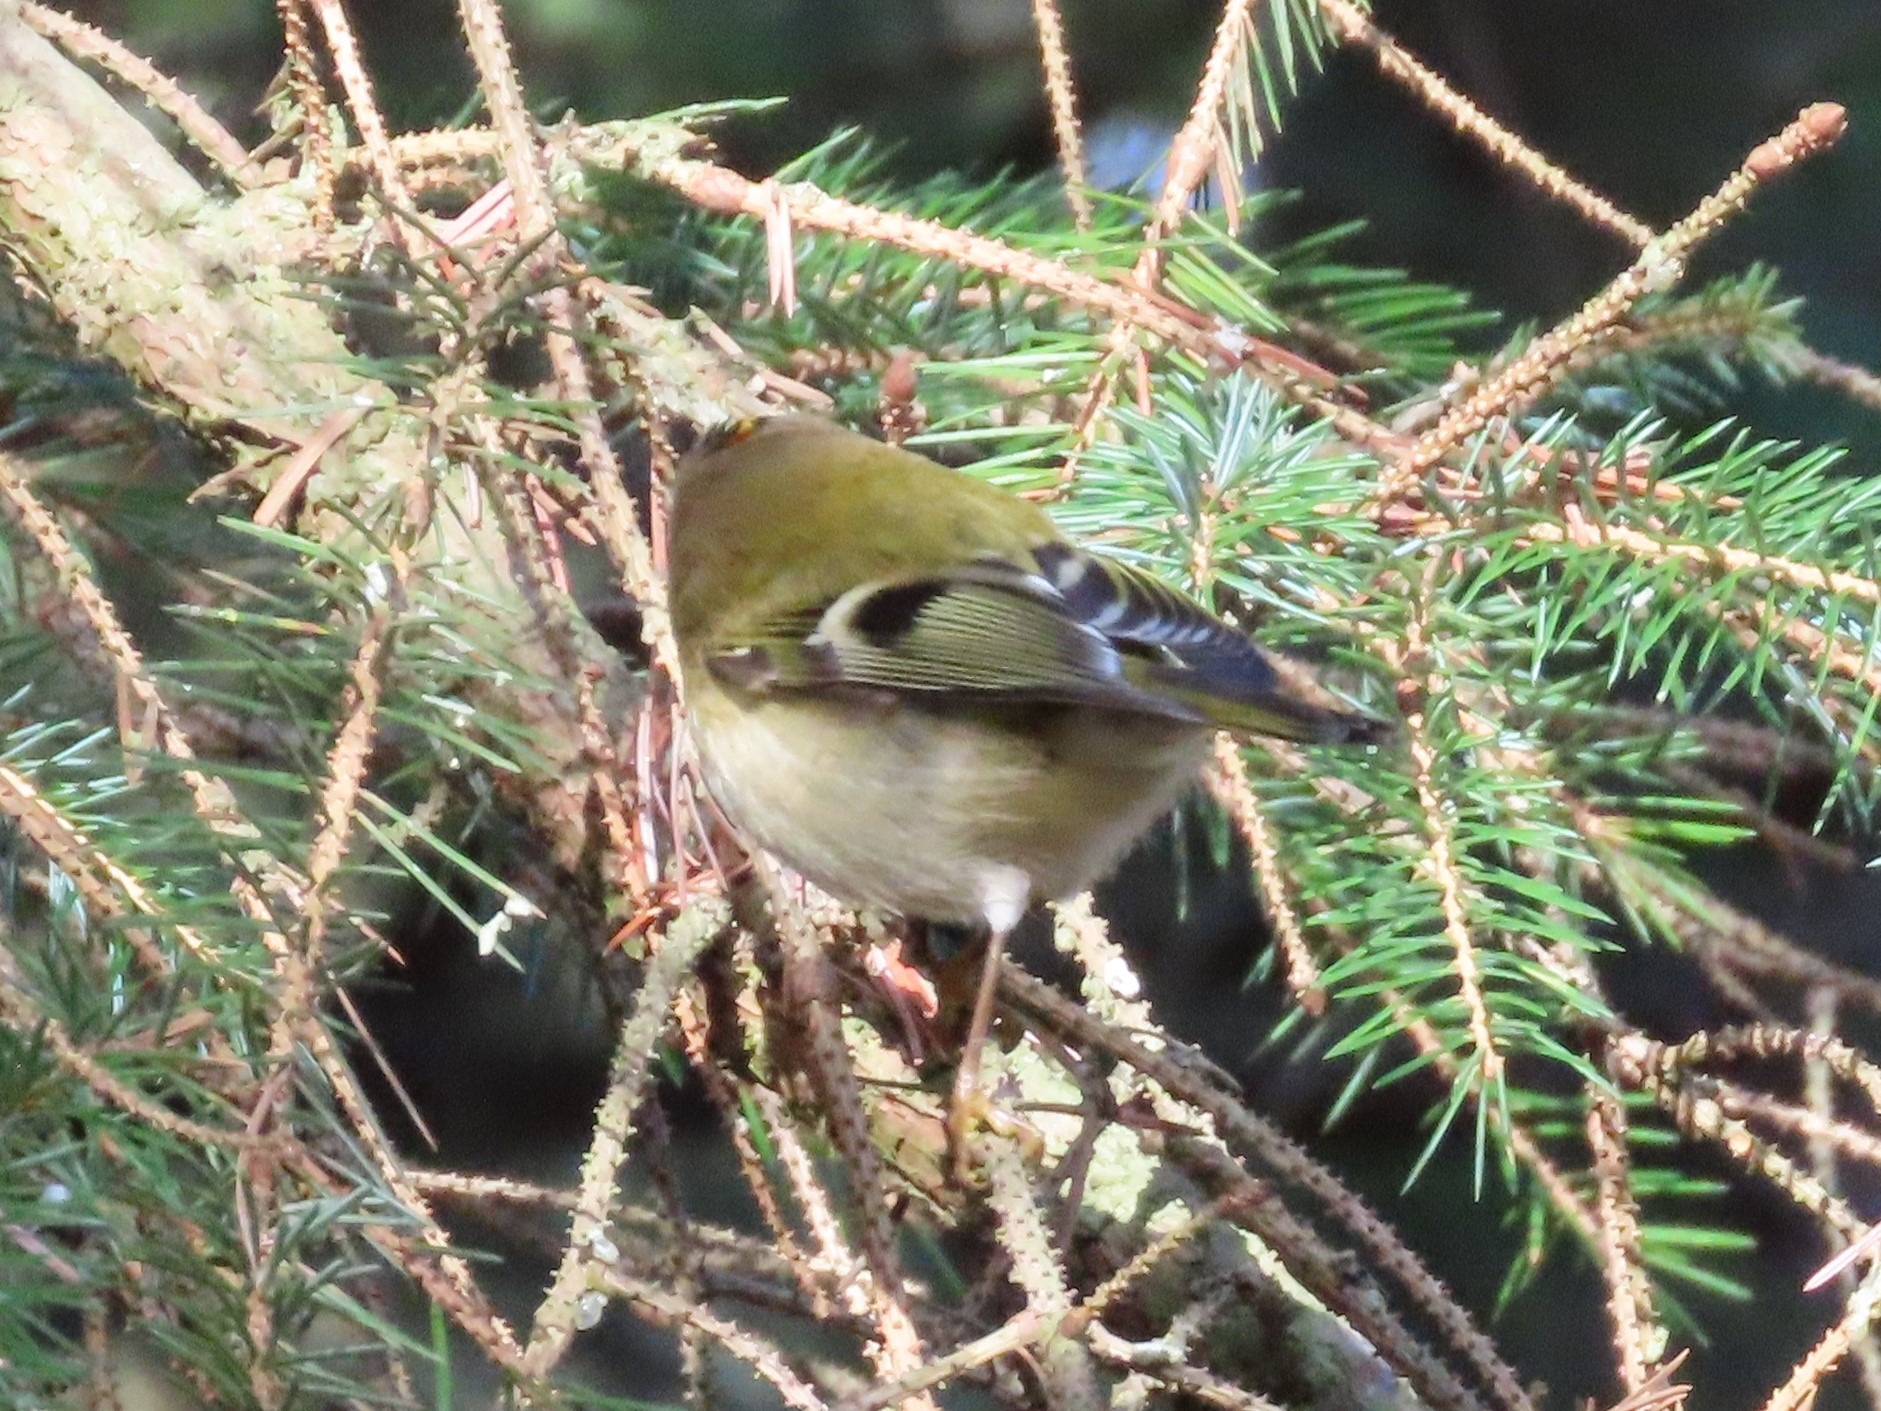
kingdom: Animalia
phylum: Chordata
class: Aves
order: Passeriformes
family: Regulidae
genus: Regulus
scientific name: Regulus regulus
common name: Fuglekonge
